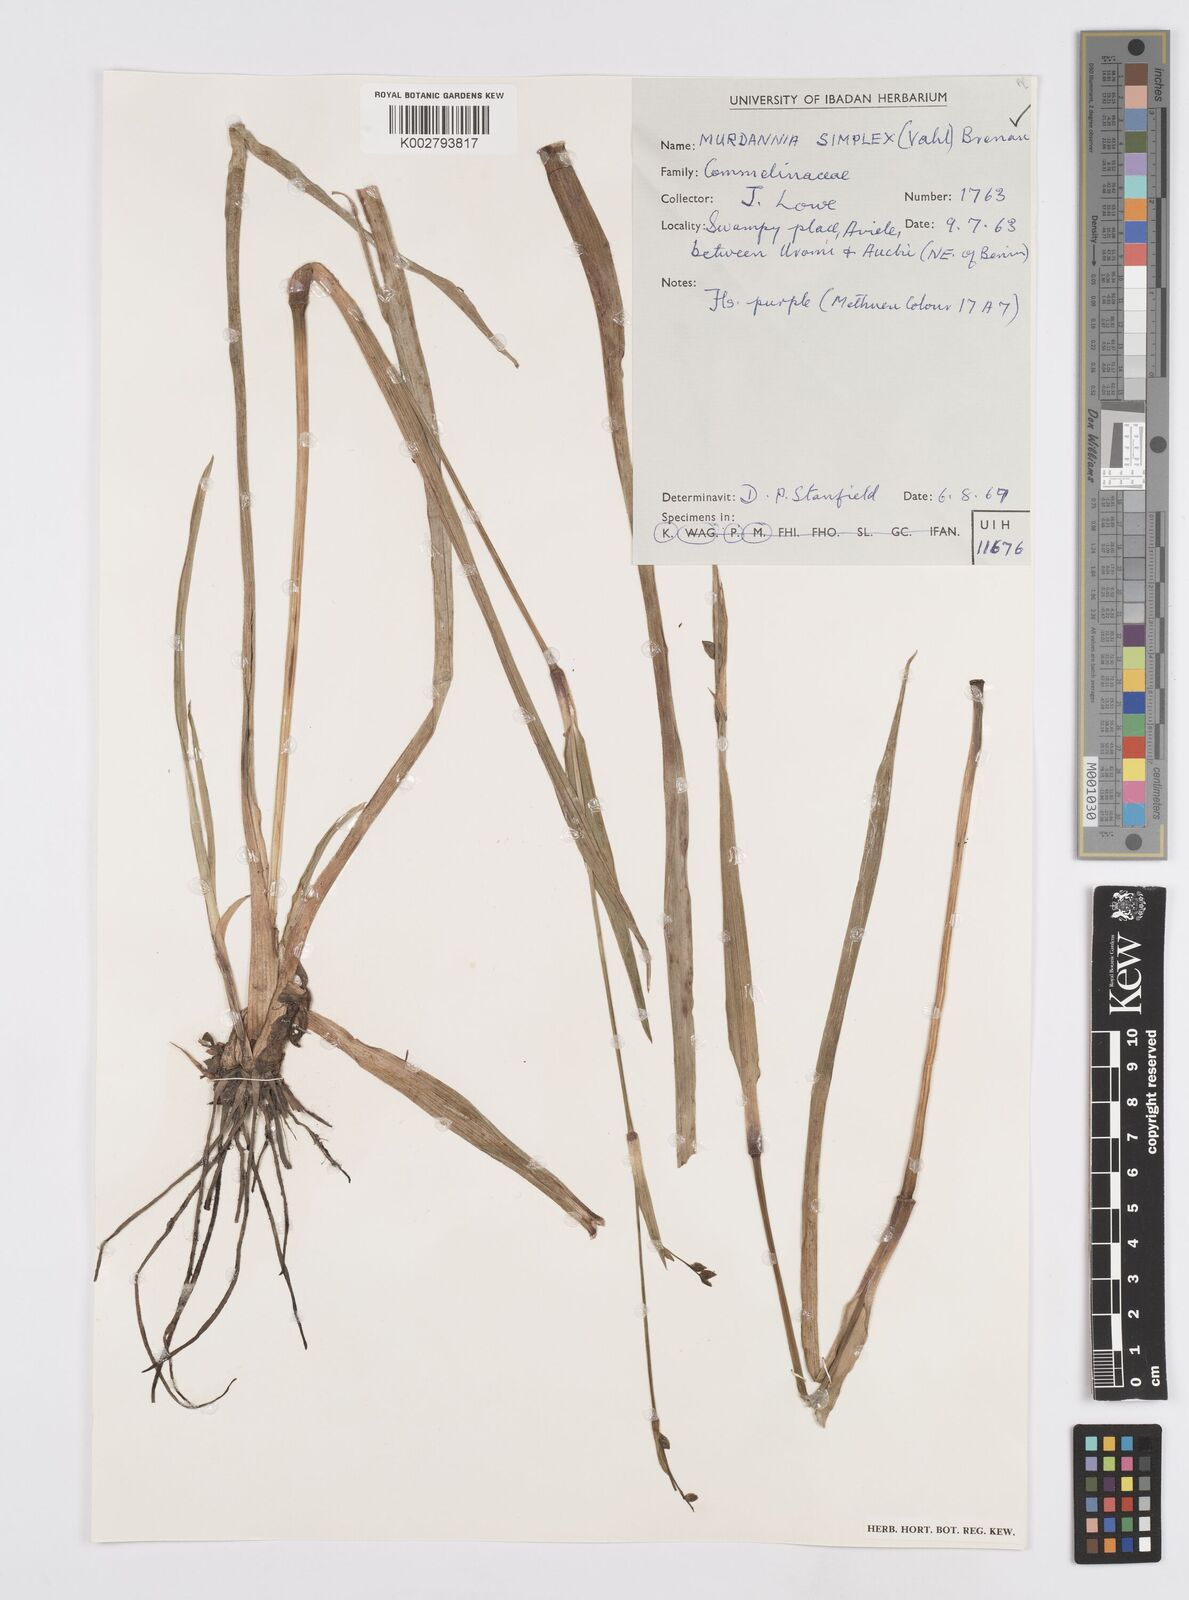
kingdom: Plantae
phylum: Tracheophyta
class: Liliopsida
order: Commelinales
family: Commelinaceae
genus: Murdannia
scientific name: Murdannia simplex
